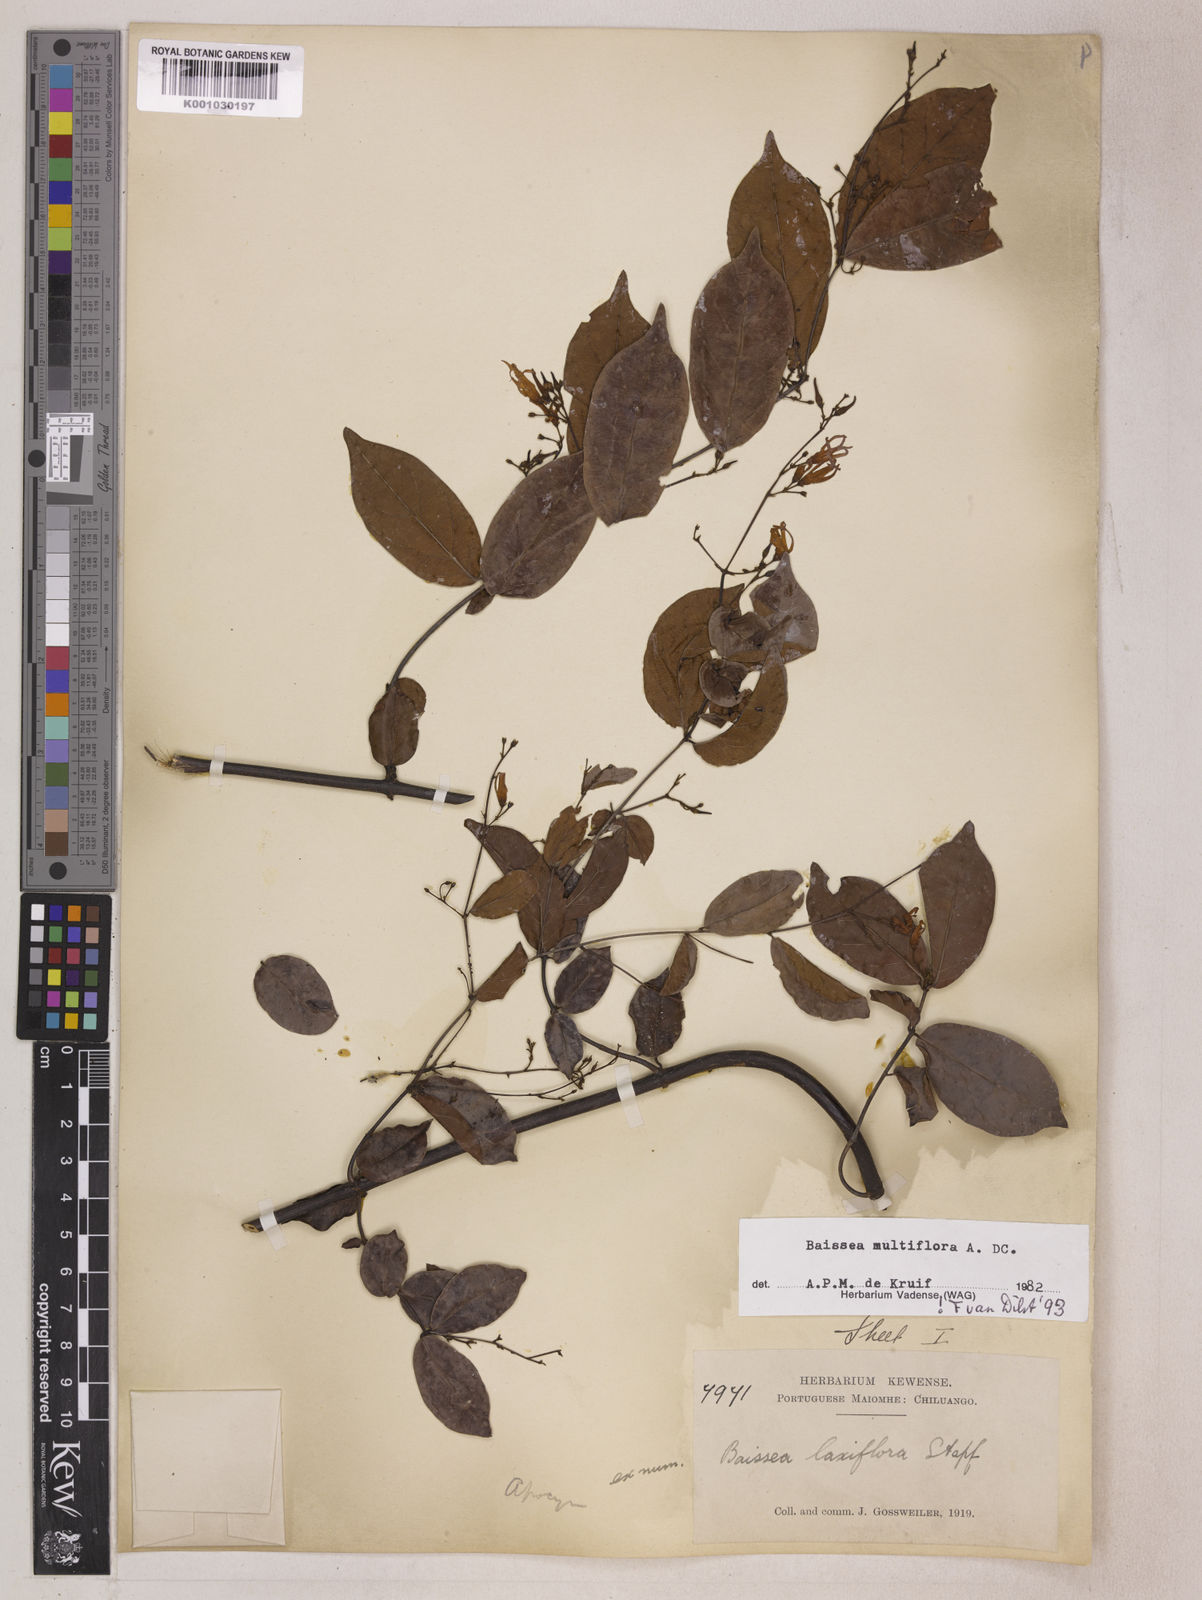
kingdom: Plantae
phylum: Tracheophyta
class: Magnoliopsida
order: Gentianales
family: Apocynaceae
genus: Baissea
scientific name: Baissea multiflora
